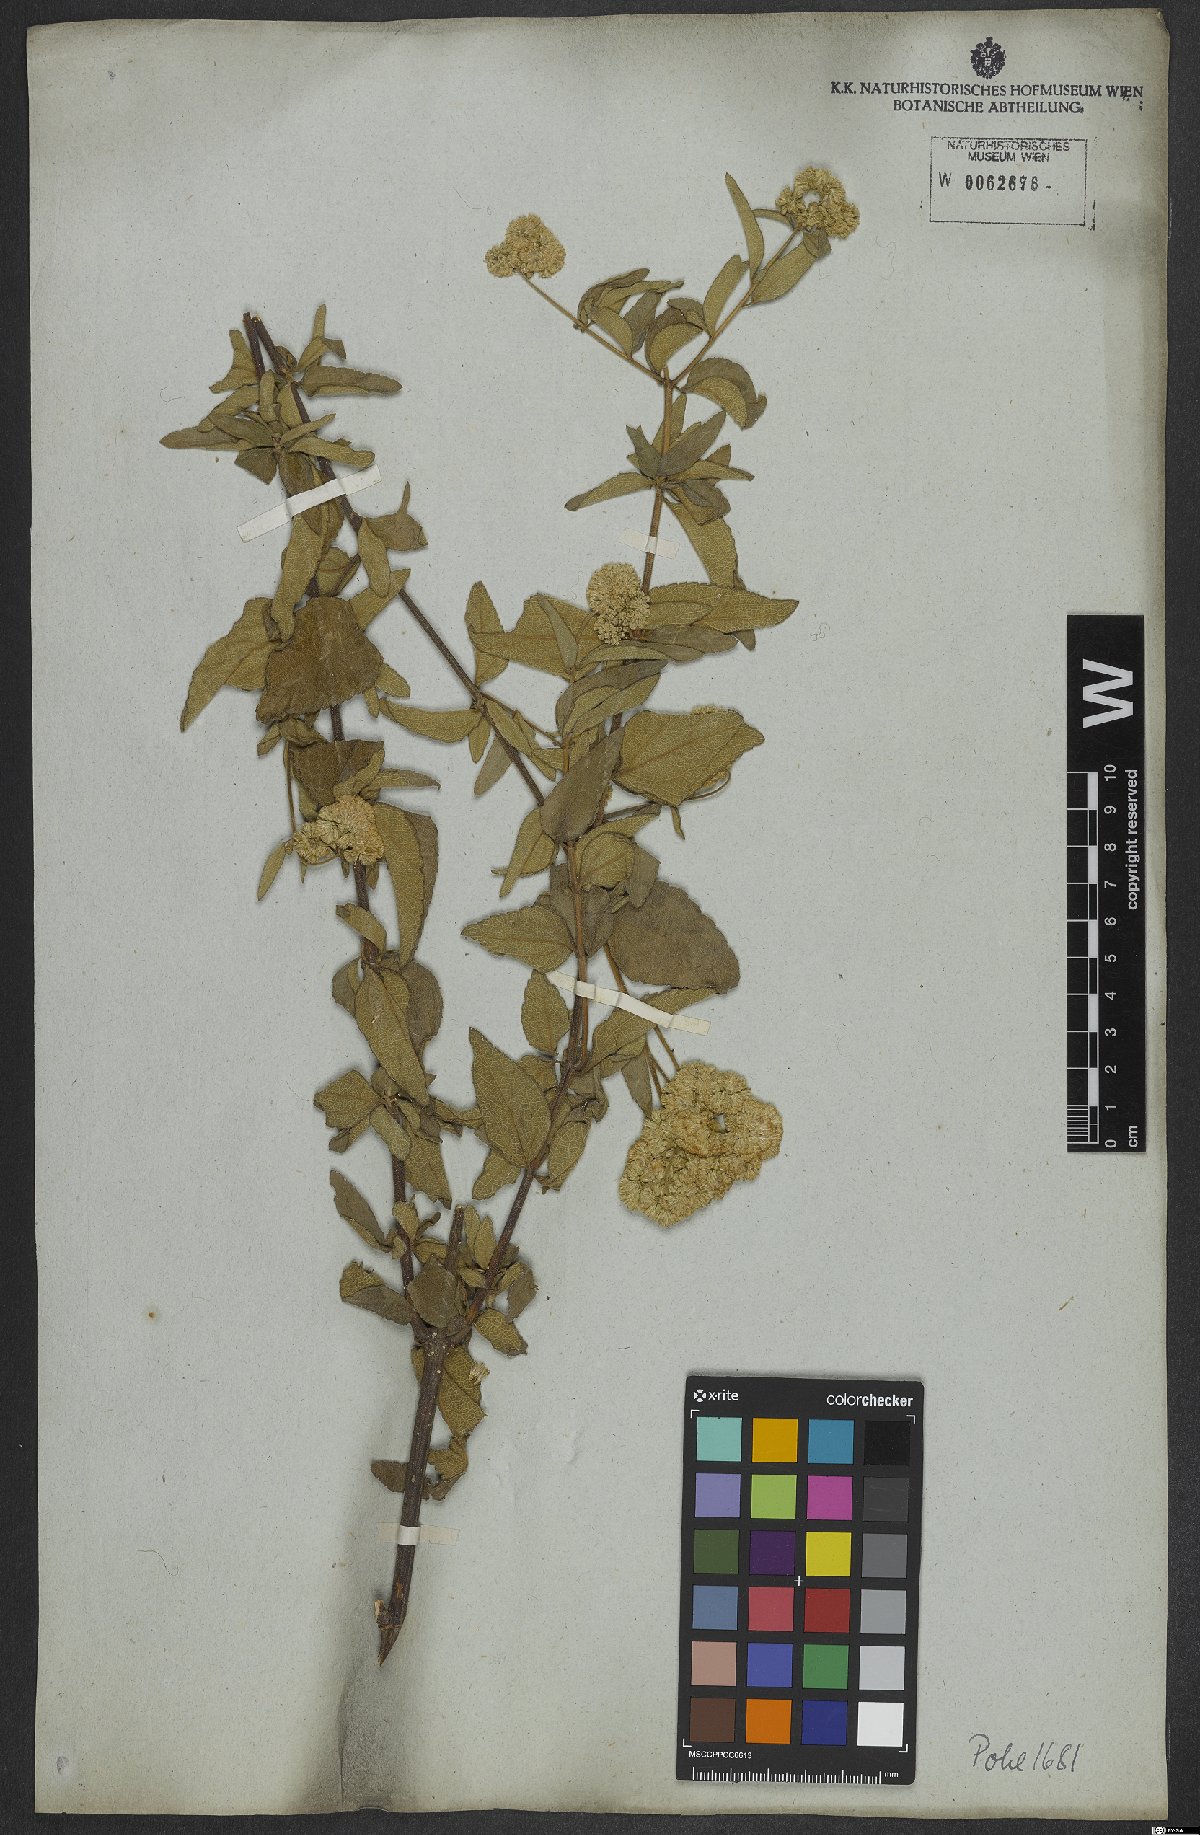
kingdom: Plantae
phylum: Tracheophyta
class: Magnoliopsida
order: Asterales
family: Asteraceae
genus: Austroeupatorium
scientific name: Austroeupatorium silphiifolium
